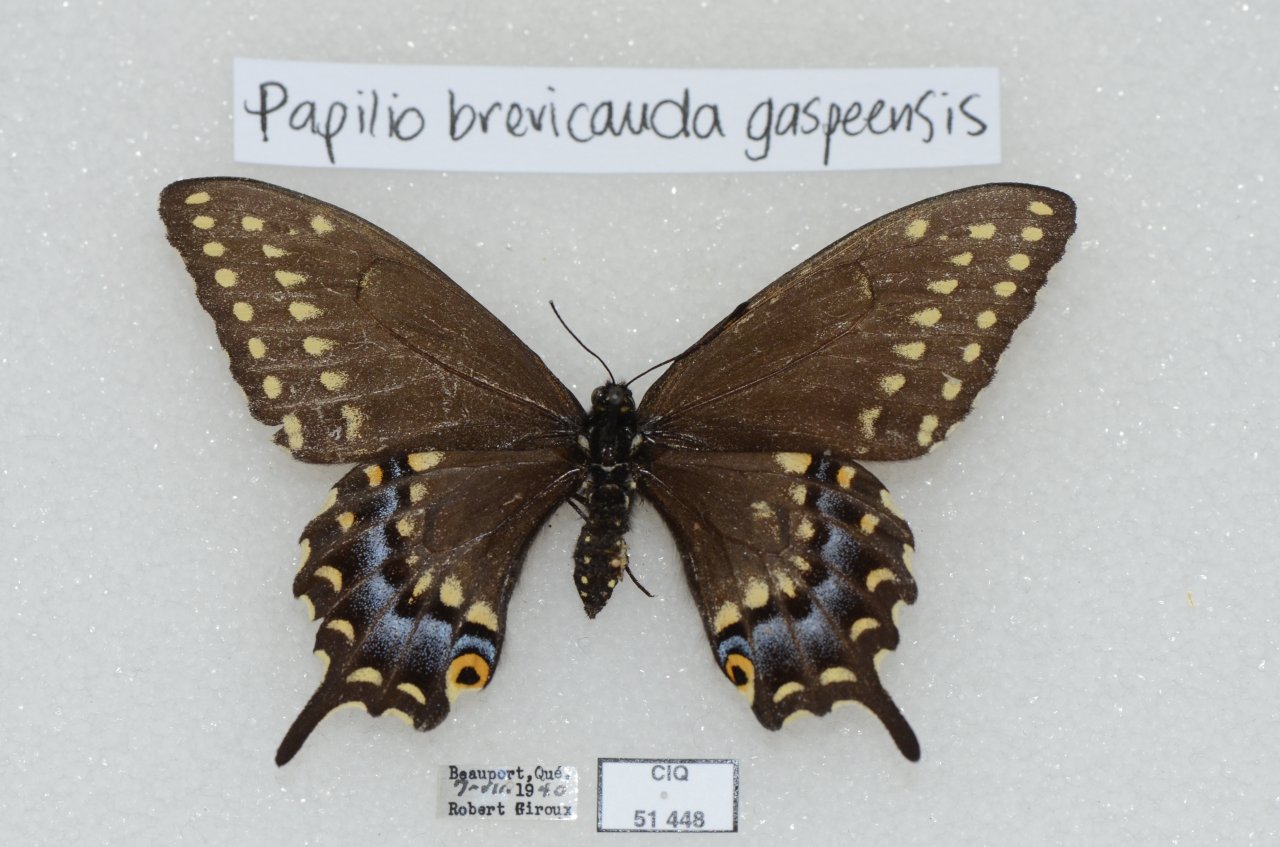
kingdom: Animalia
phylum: Arthropoda
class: Insecta
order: Lepidoptera
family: Papilionidae
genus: Papilio
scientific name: Papilio
